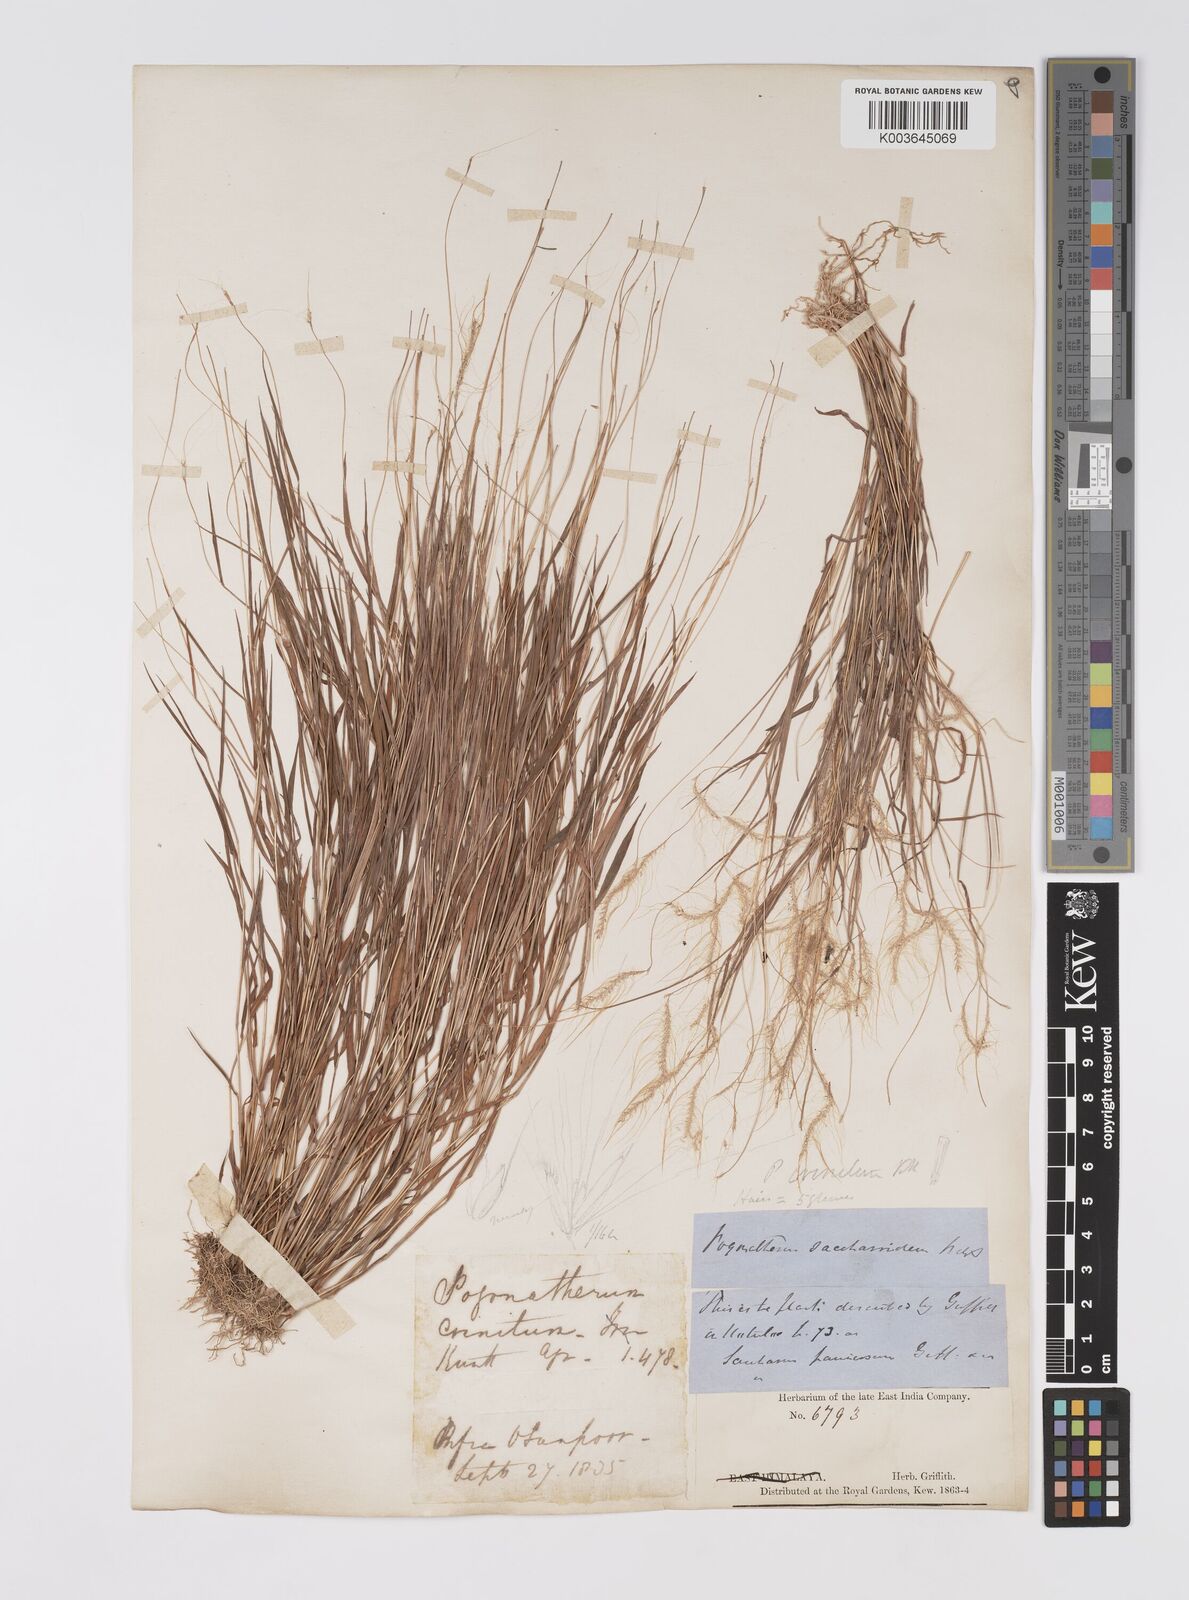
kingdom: Plantae
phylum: Tracheophyta
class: Liliopsida
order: Poales
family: Poaceae
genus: Pogonatherum
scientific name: Pogonatherum crinitum
